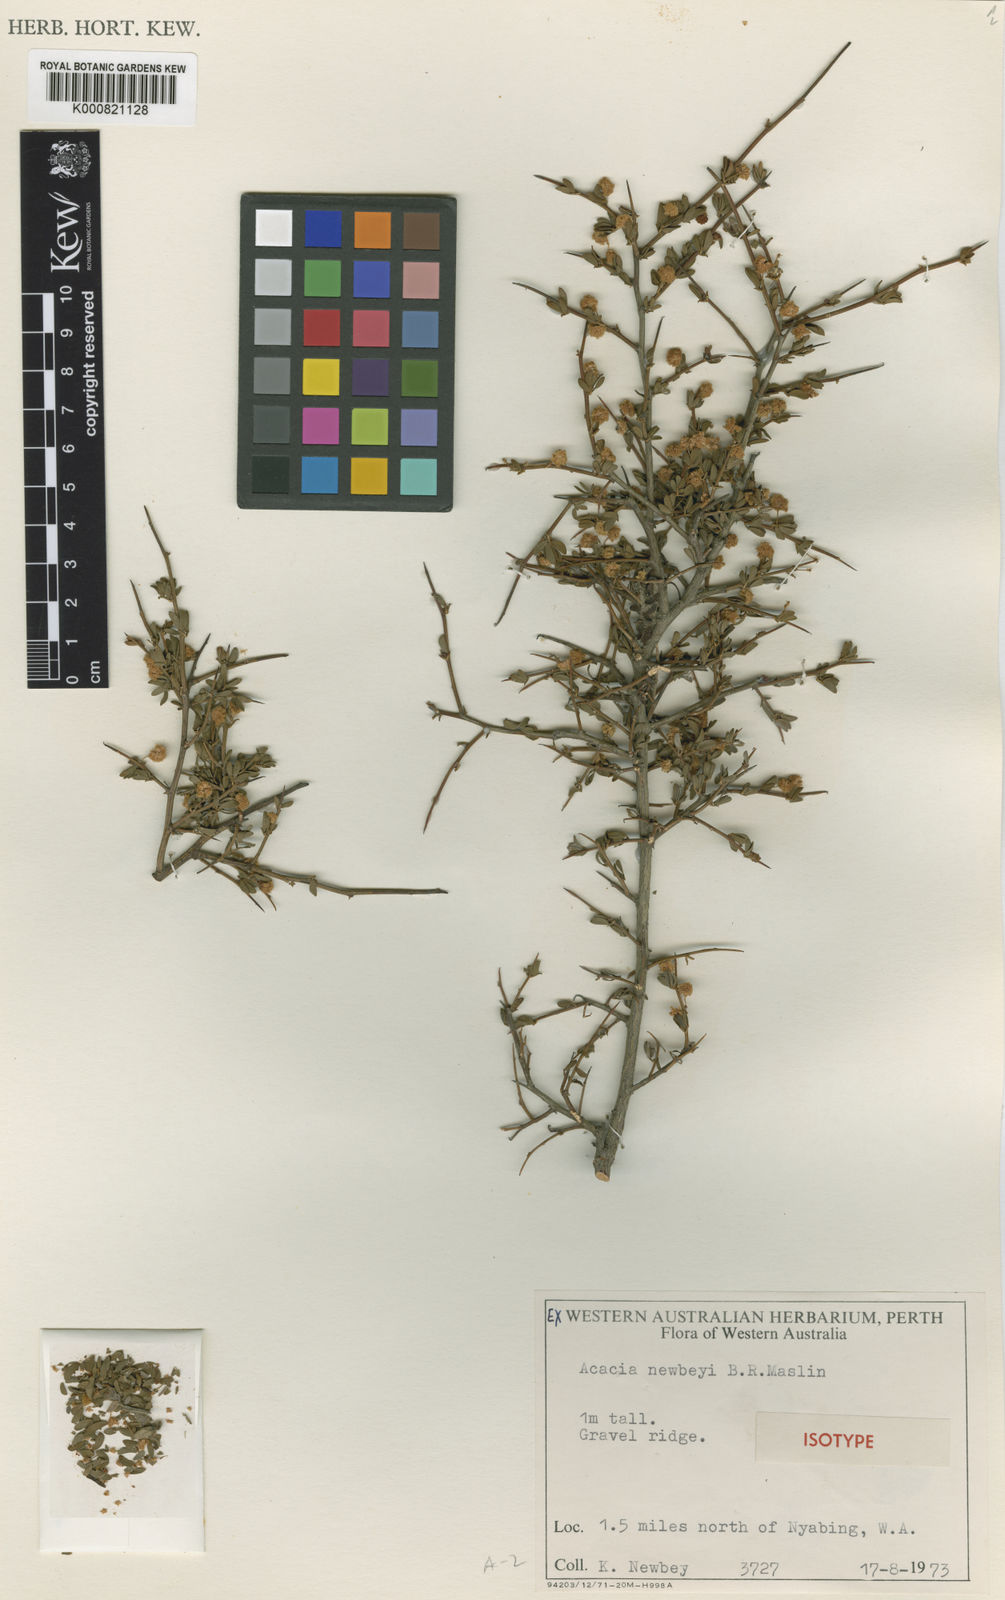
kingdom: Plantae
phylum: Tracheophyta
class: Magnoliopsida
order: Fabales
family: Fabaceae
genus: Acacia
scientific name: Acacia newbeyi
